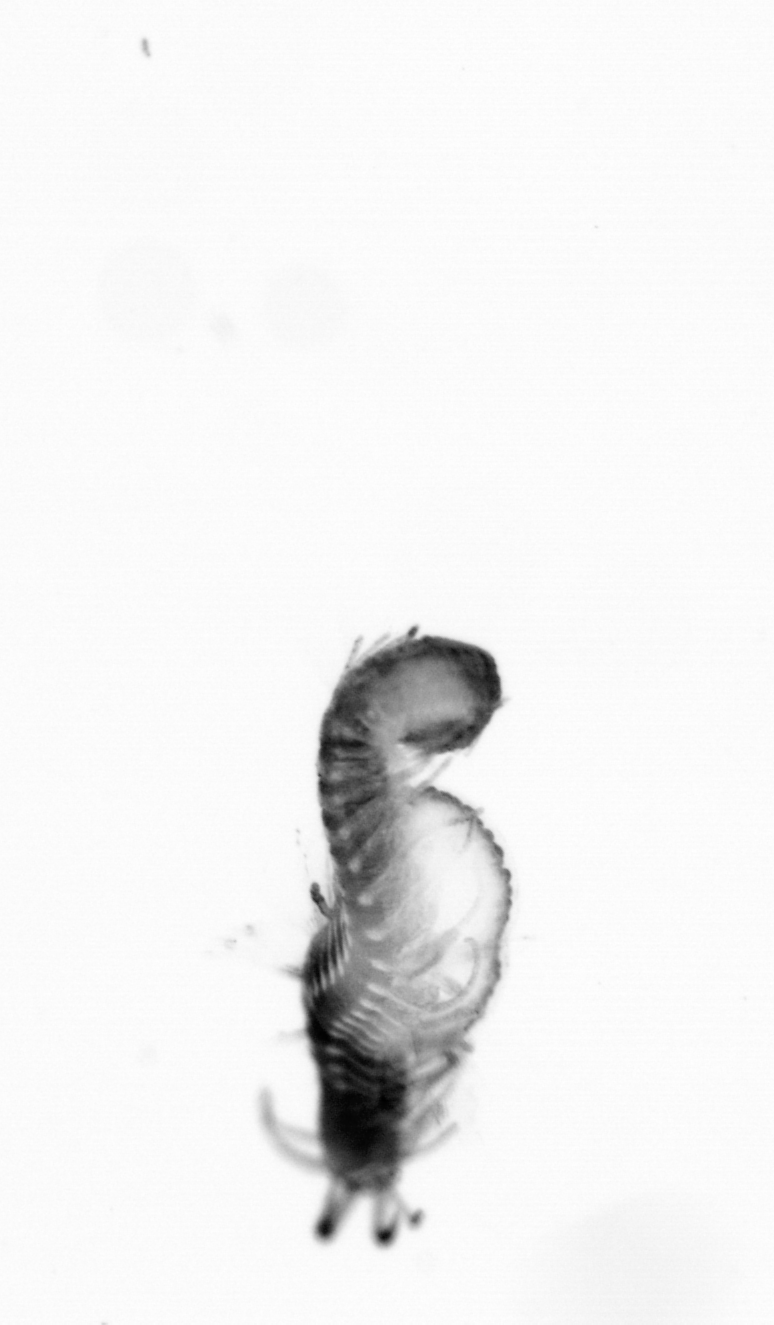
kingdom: Animalia
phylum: Annelida
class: Polychaeta
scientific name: Polychaeta
